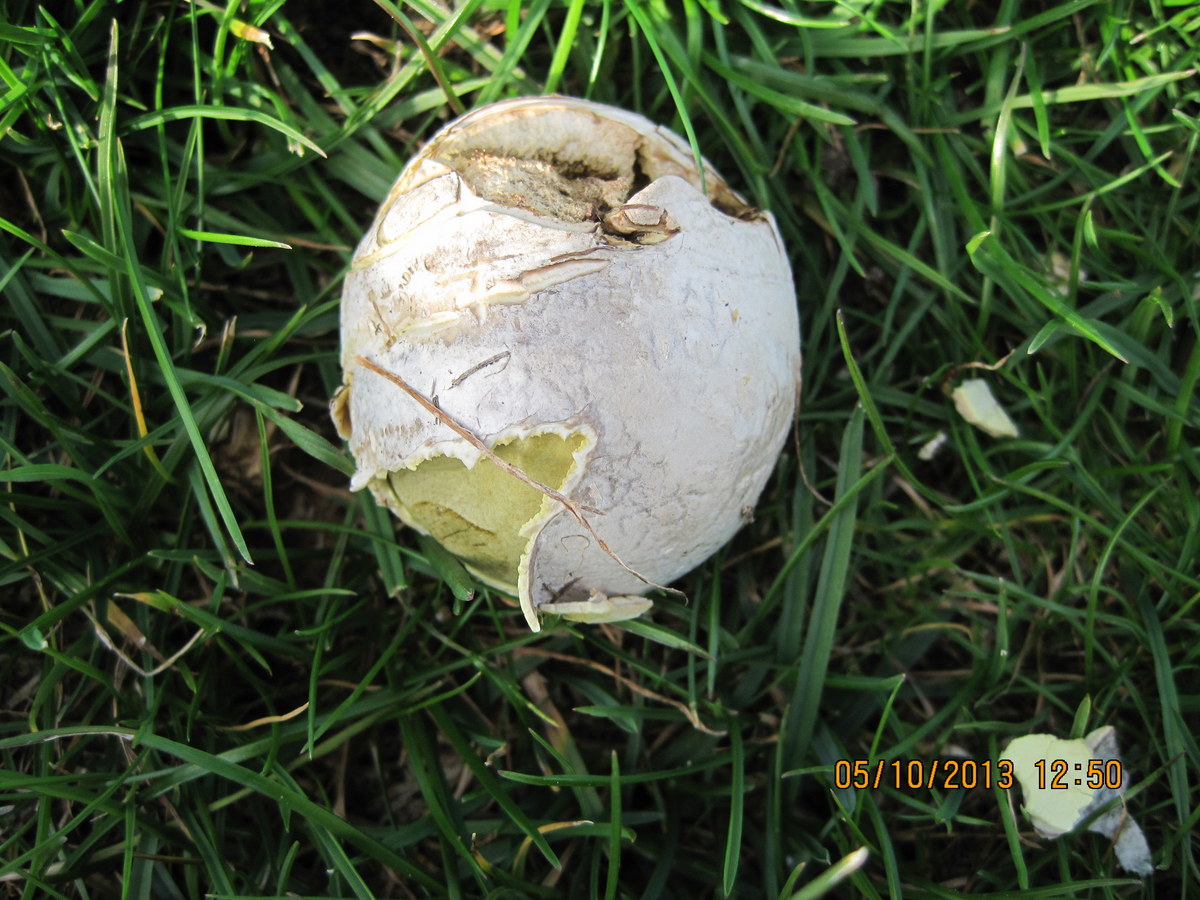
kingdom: Fungi
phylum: Basidiomycota
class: Agaricomycetes
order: Agaricales
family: Lycoperdaceae
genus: Bovista
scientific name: Bovista nigrescens
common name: sortagtig bovist
